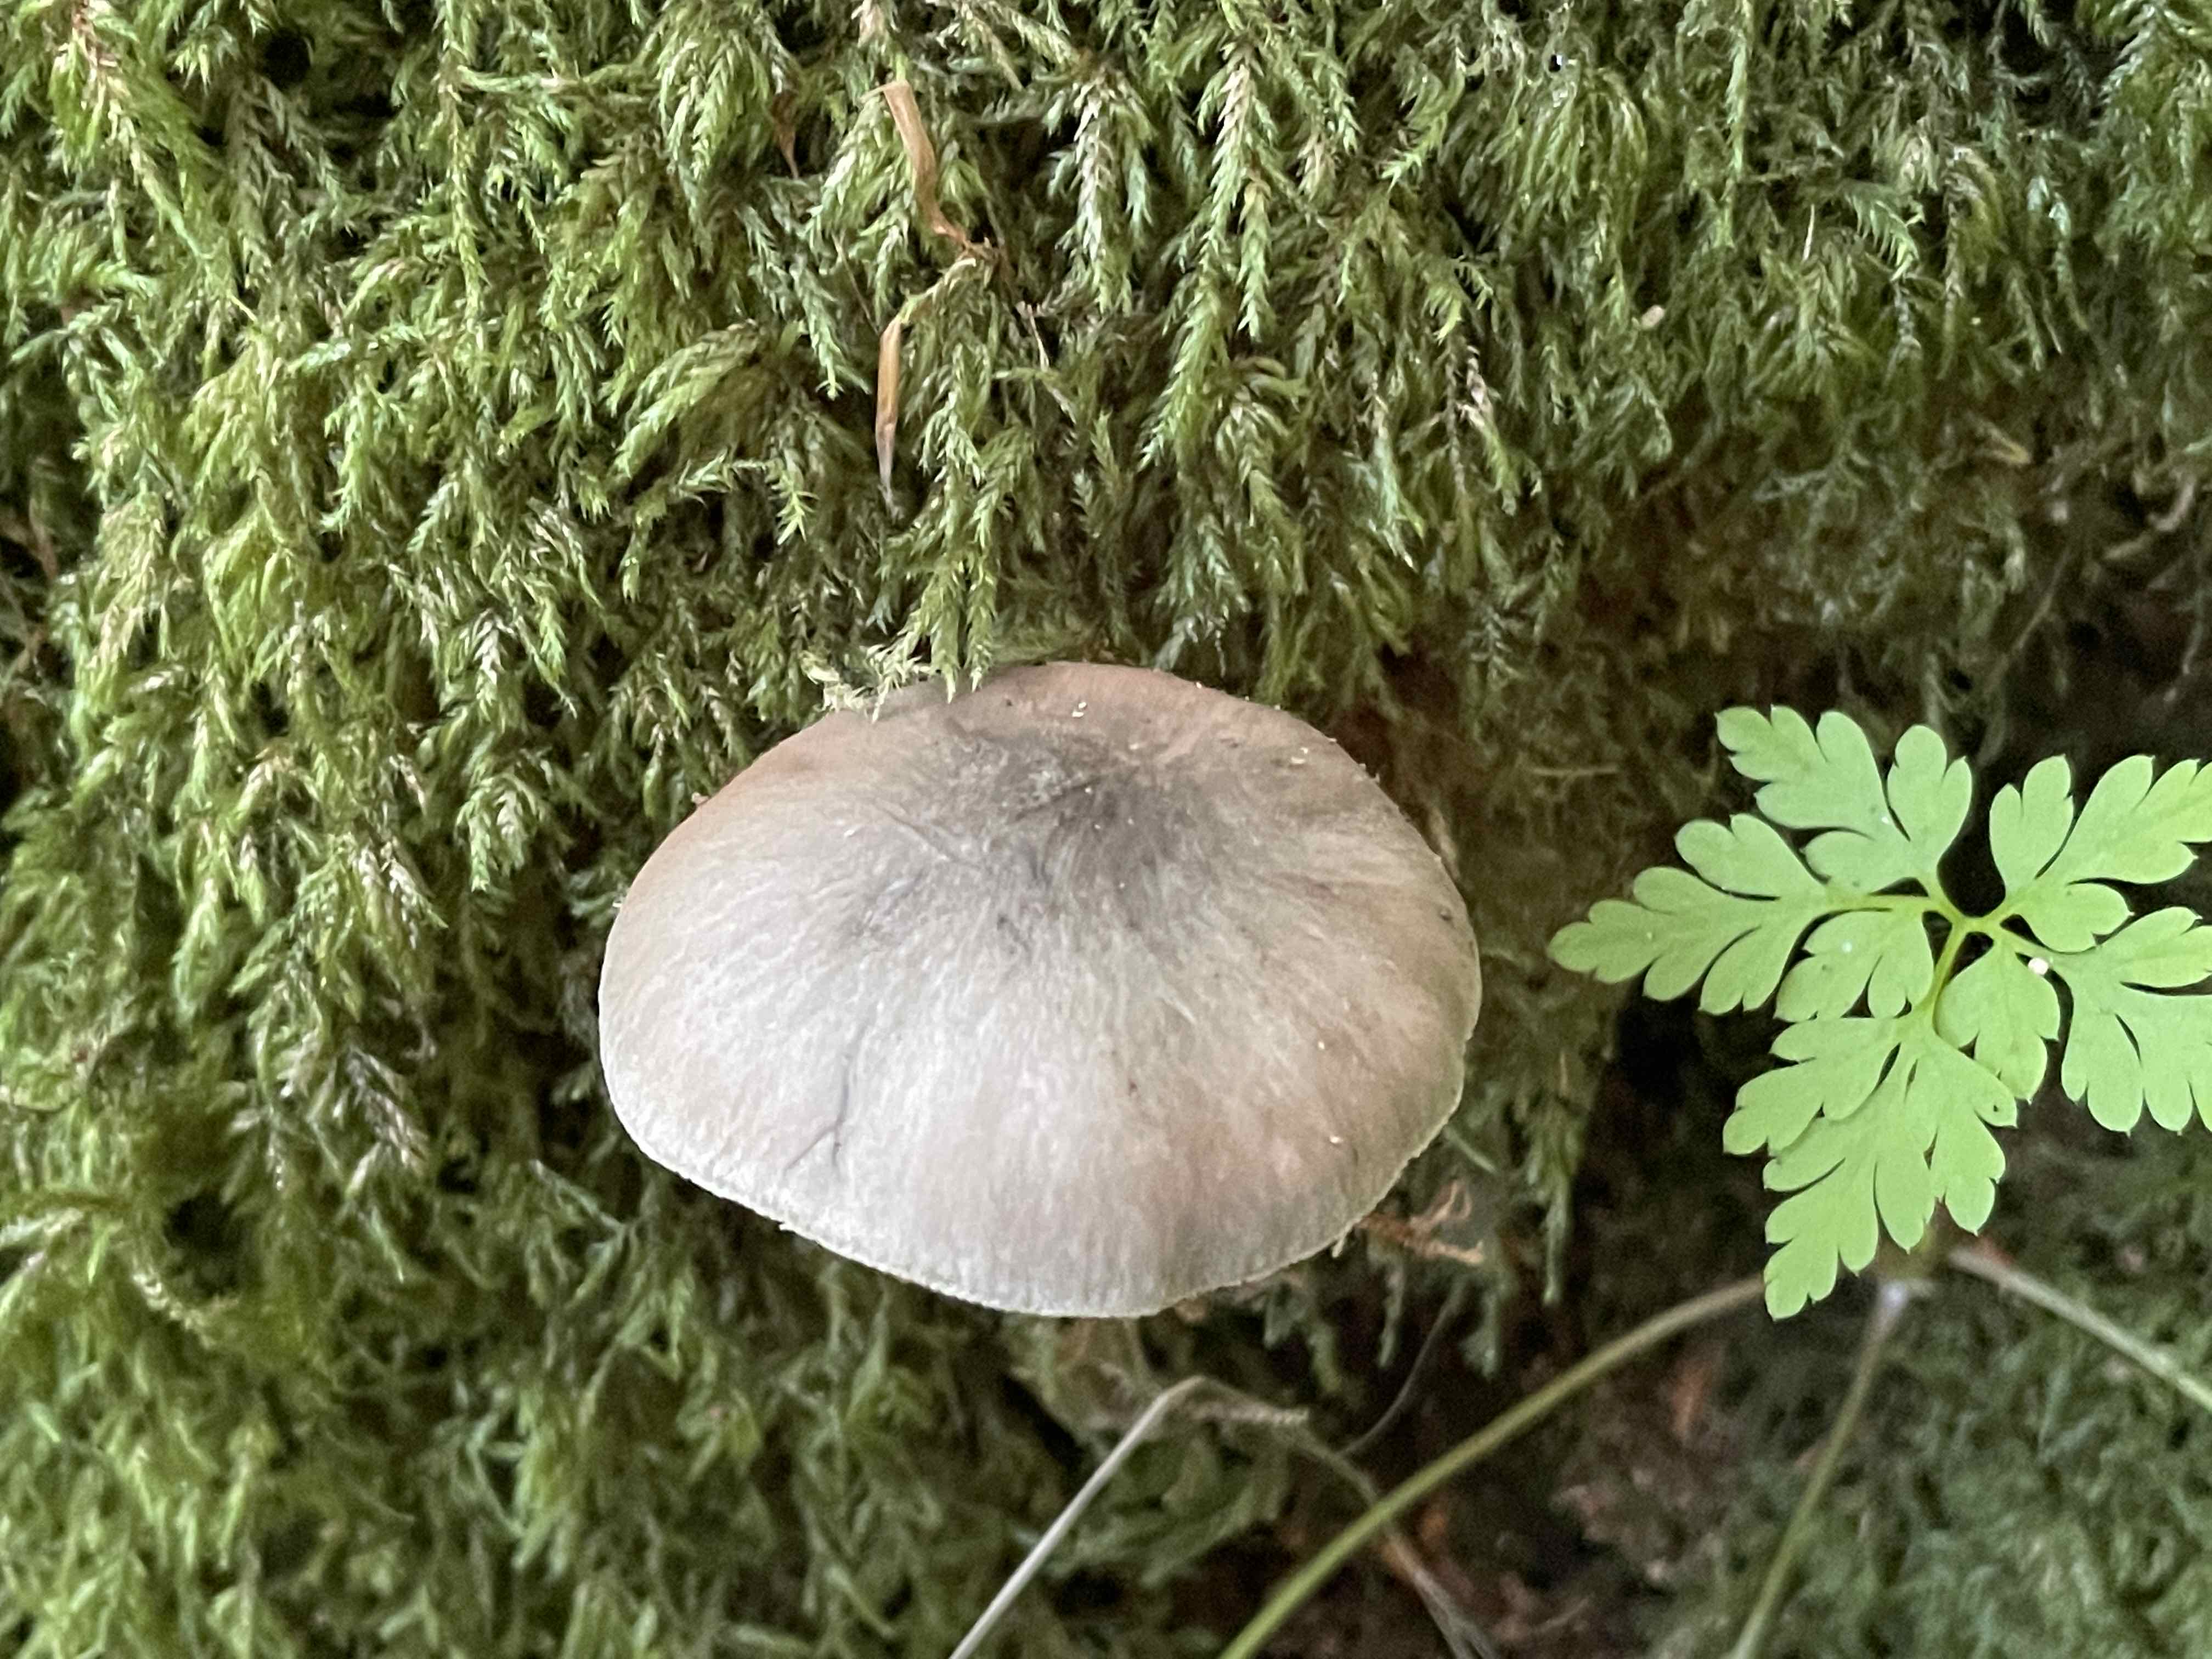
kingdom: Fungi
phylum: Basidiomycota
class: Agaricomycetes
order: Agaricales
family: Pluteaceae
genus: Pluteus
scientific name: Pluteus salicinus
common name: stiv skærmhat
